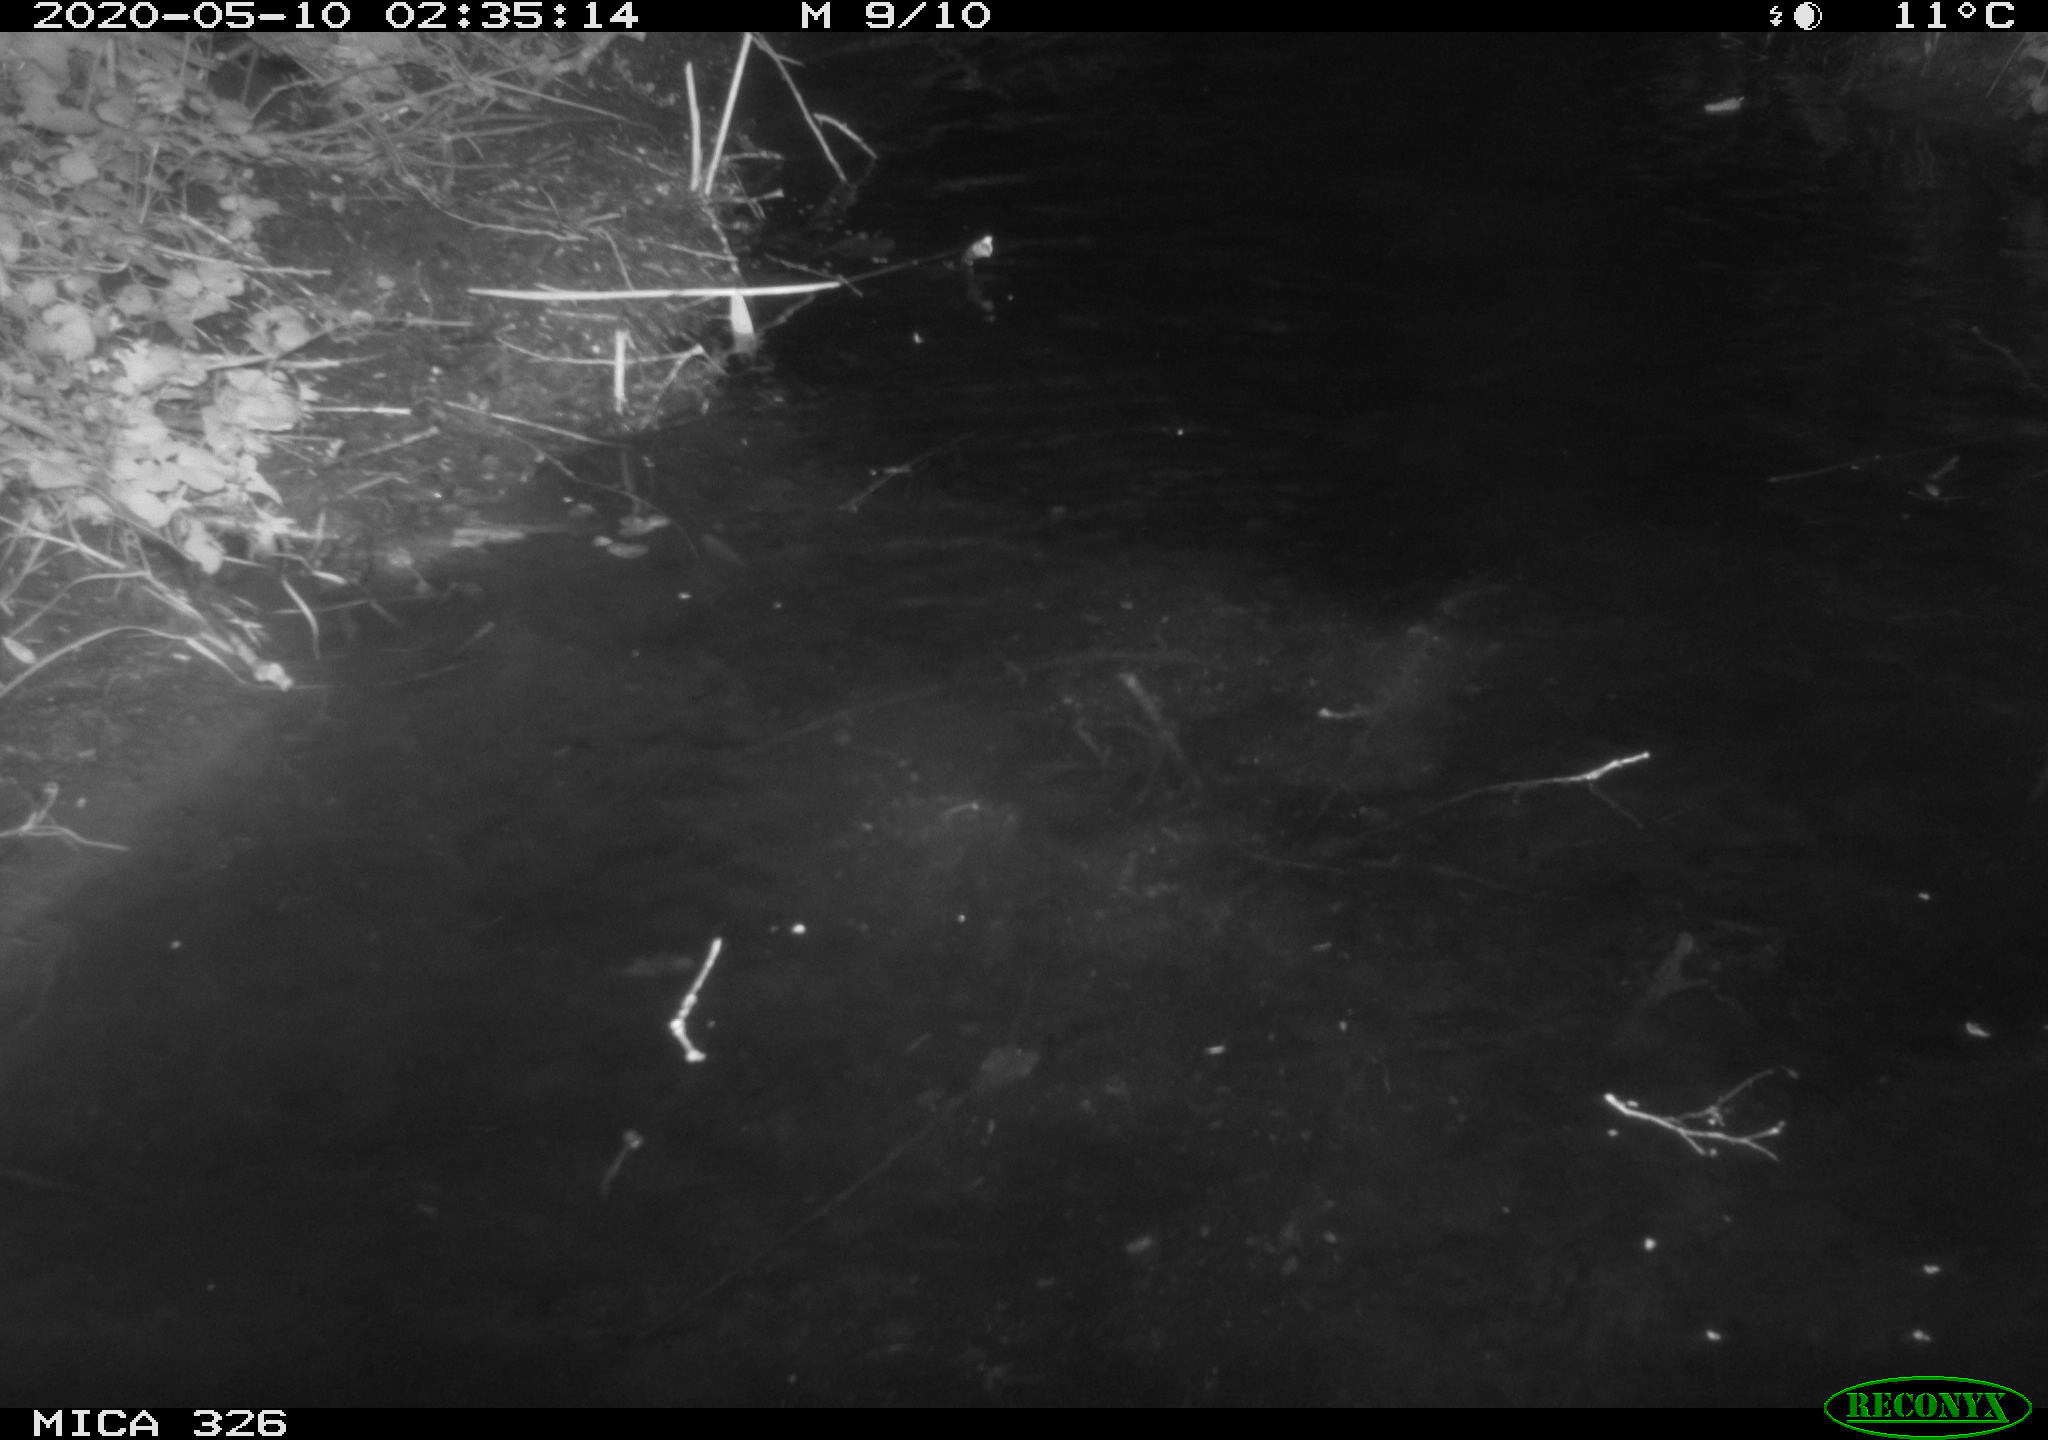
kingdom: Animalia
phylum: Chordata
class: Mammalia
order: Rodentia
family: Myocastoridae
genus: Myocastor
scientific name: Myocastor coypus
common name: Coypu
